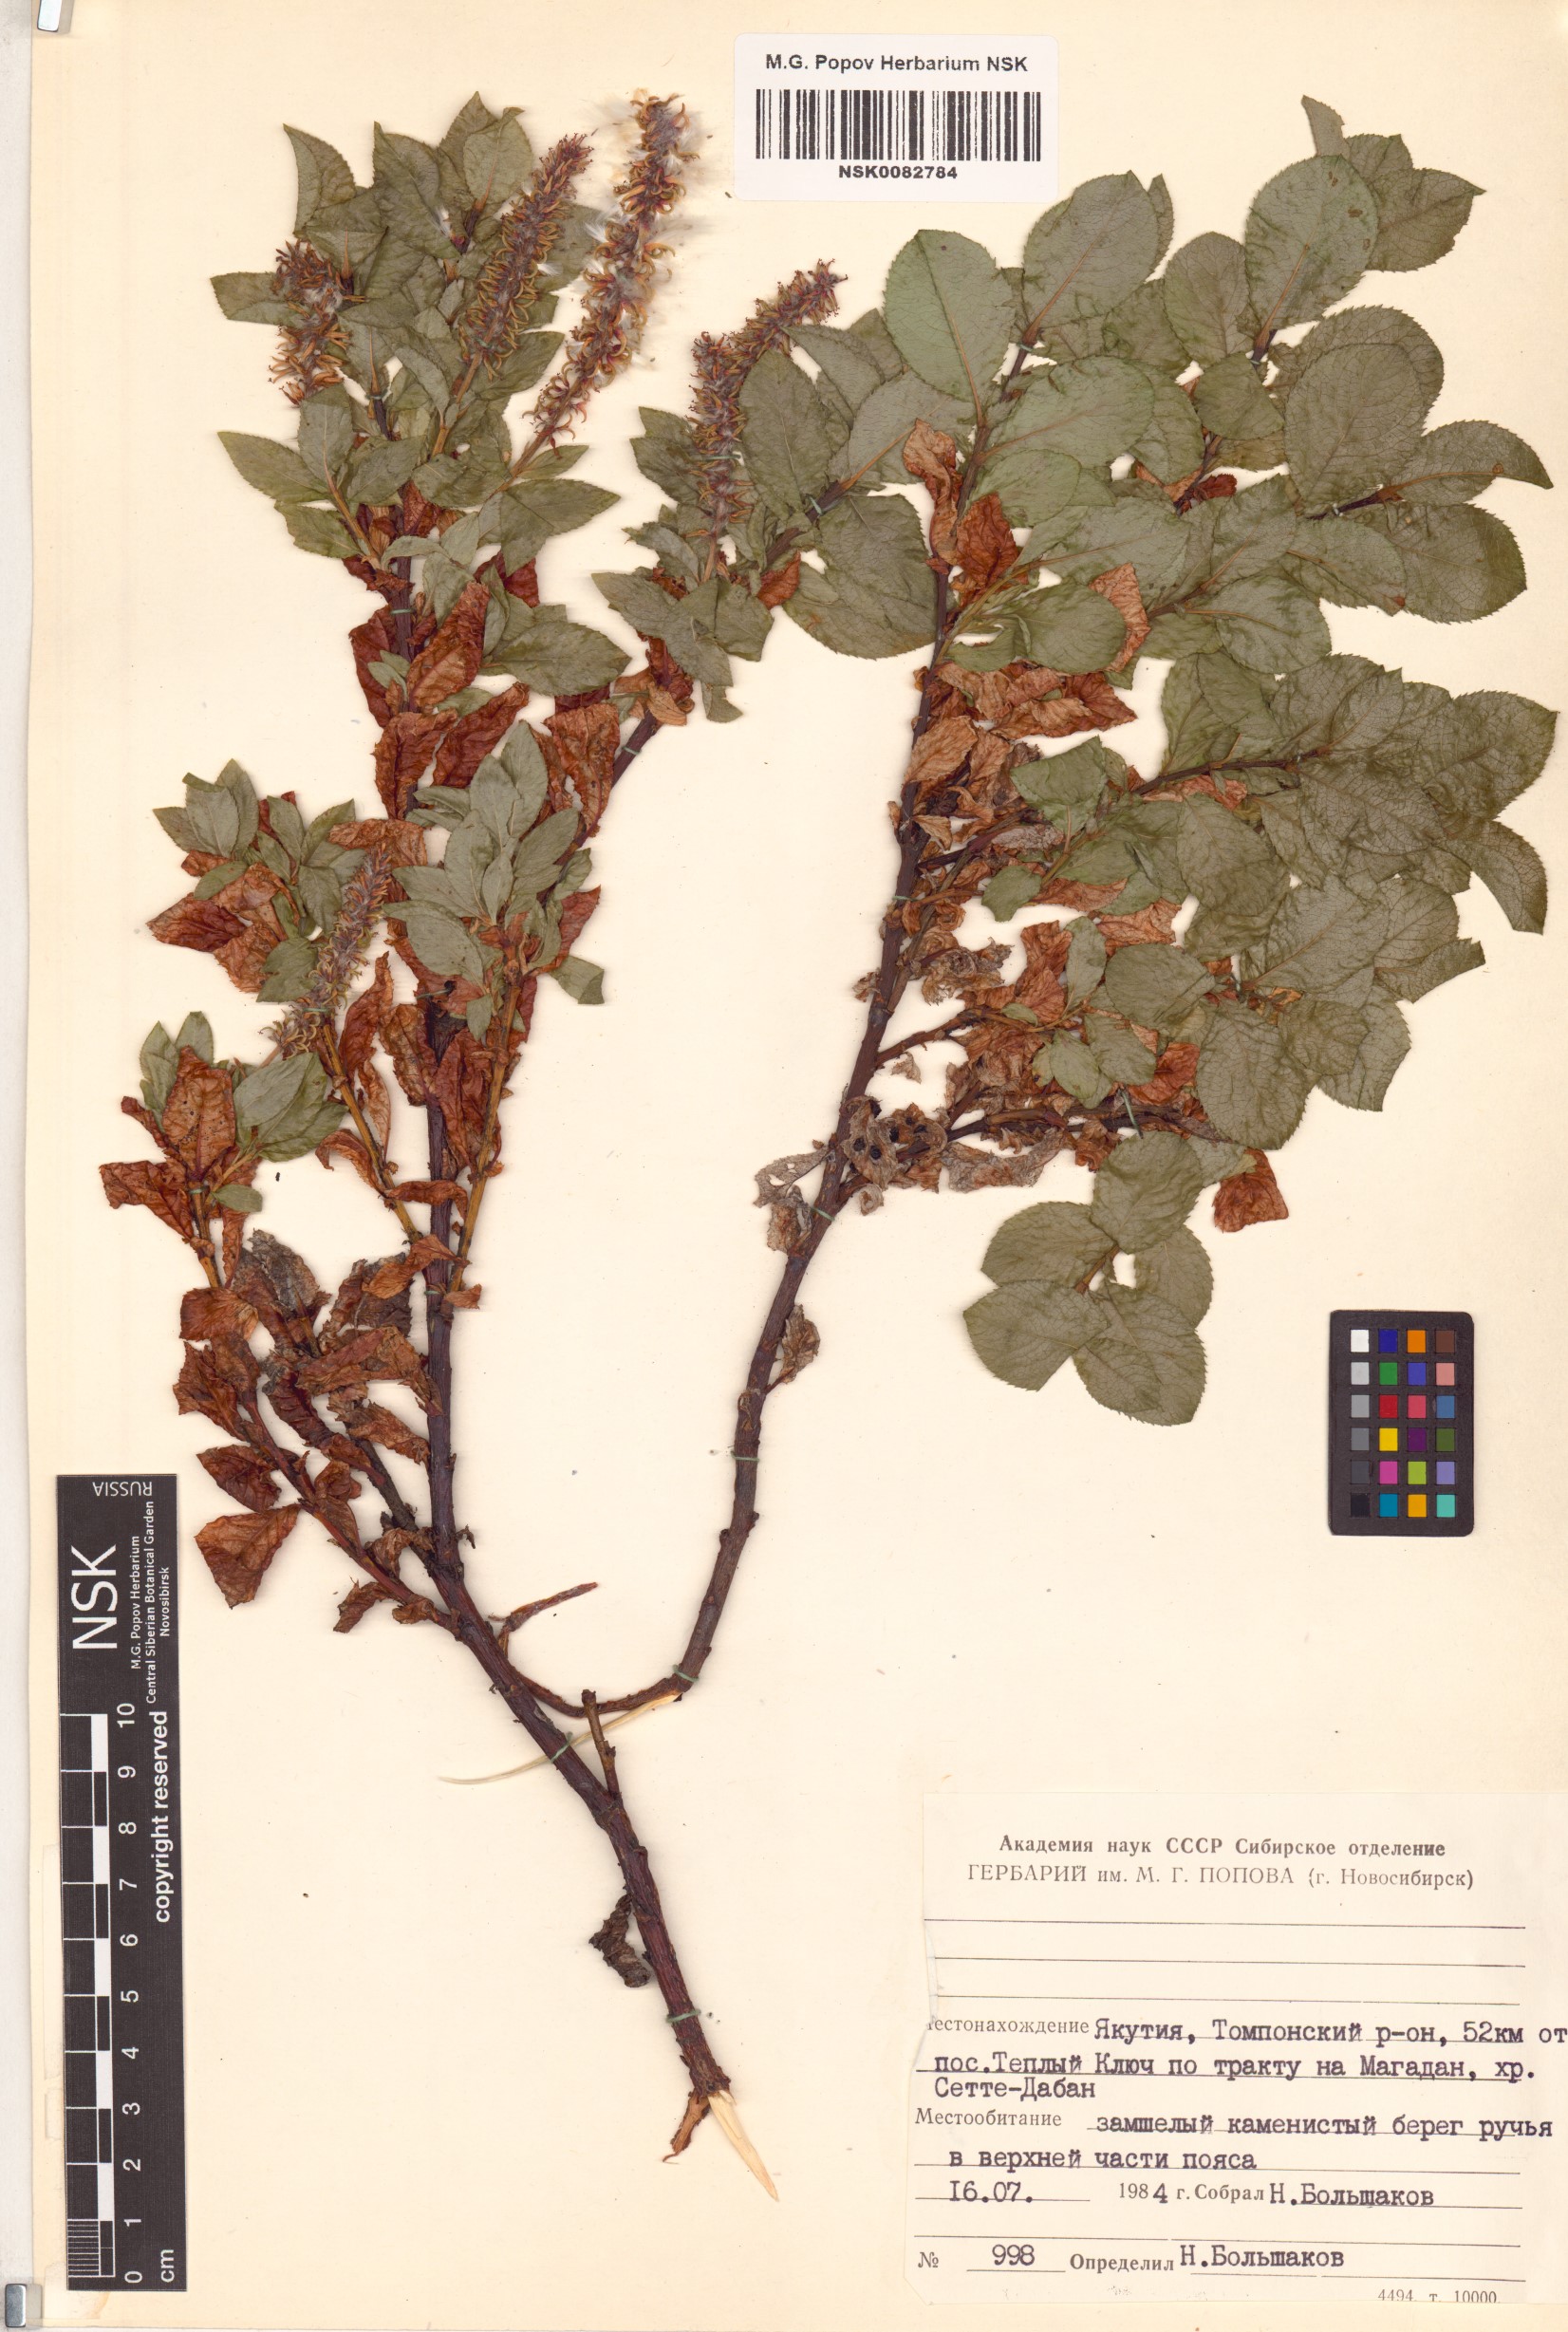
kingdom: Plantae
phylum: Tracheophyta
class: Magnoliopsida
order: Malpighiales
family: Salicaceae
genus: Salix
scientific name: Salix tschuktschorum
